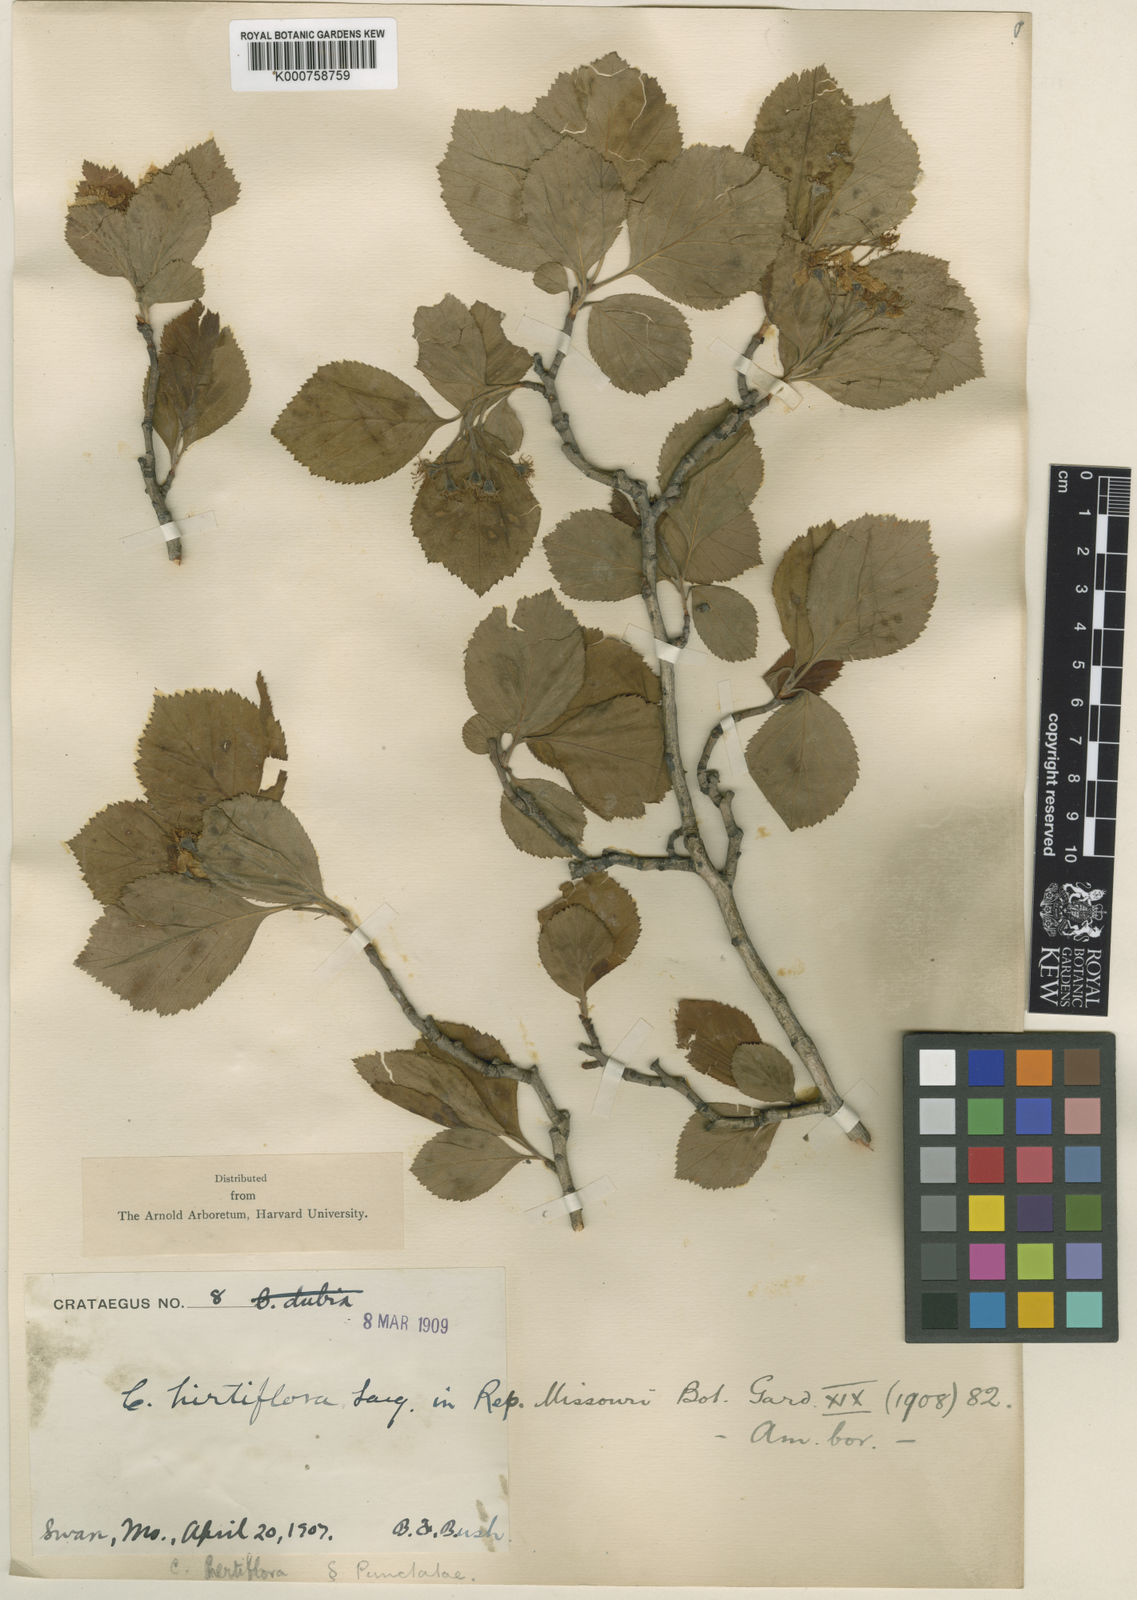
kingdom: Plantae
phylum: Tracheophyta
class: Magnoliopsida
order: Rosales
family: Rosaceae
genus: Crataegus
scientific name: Crataegus
